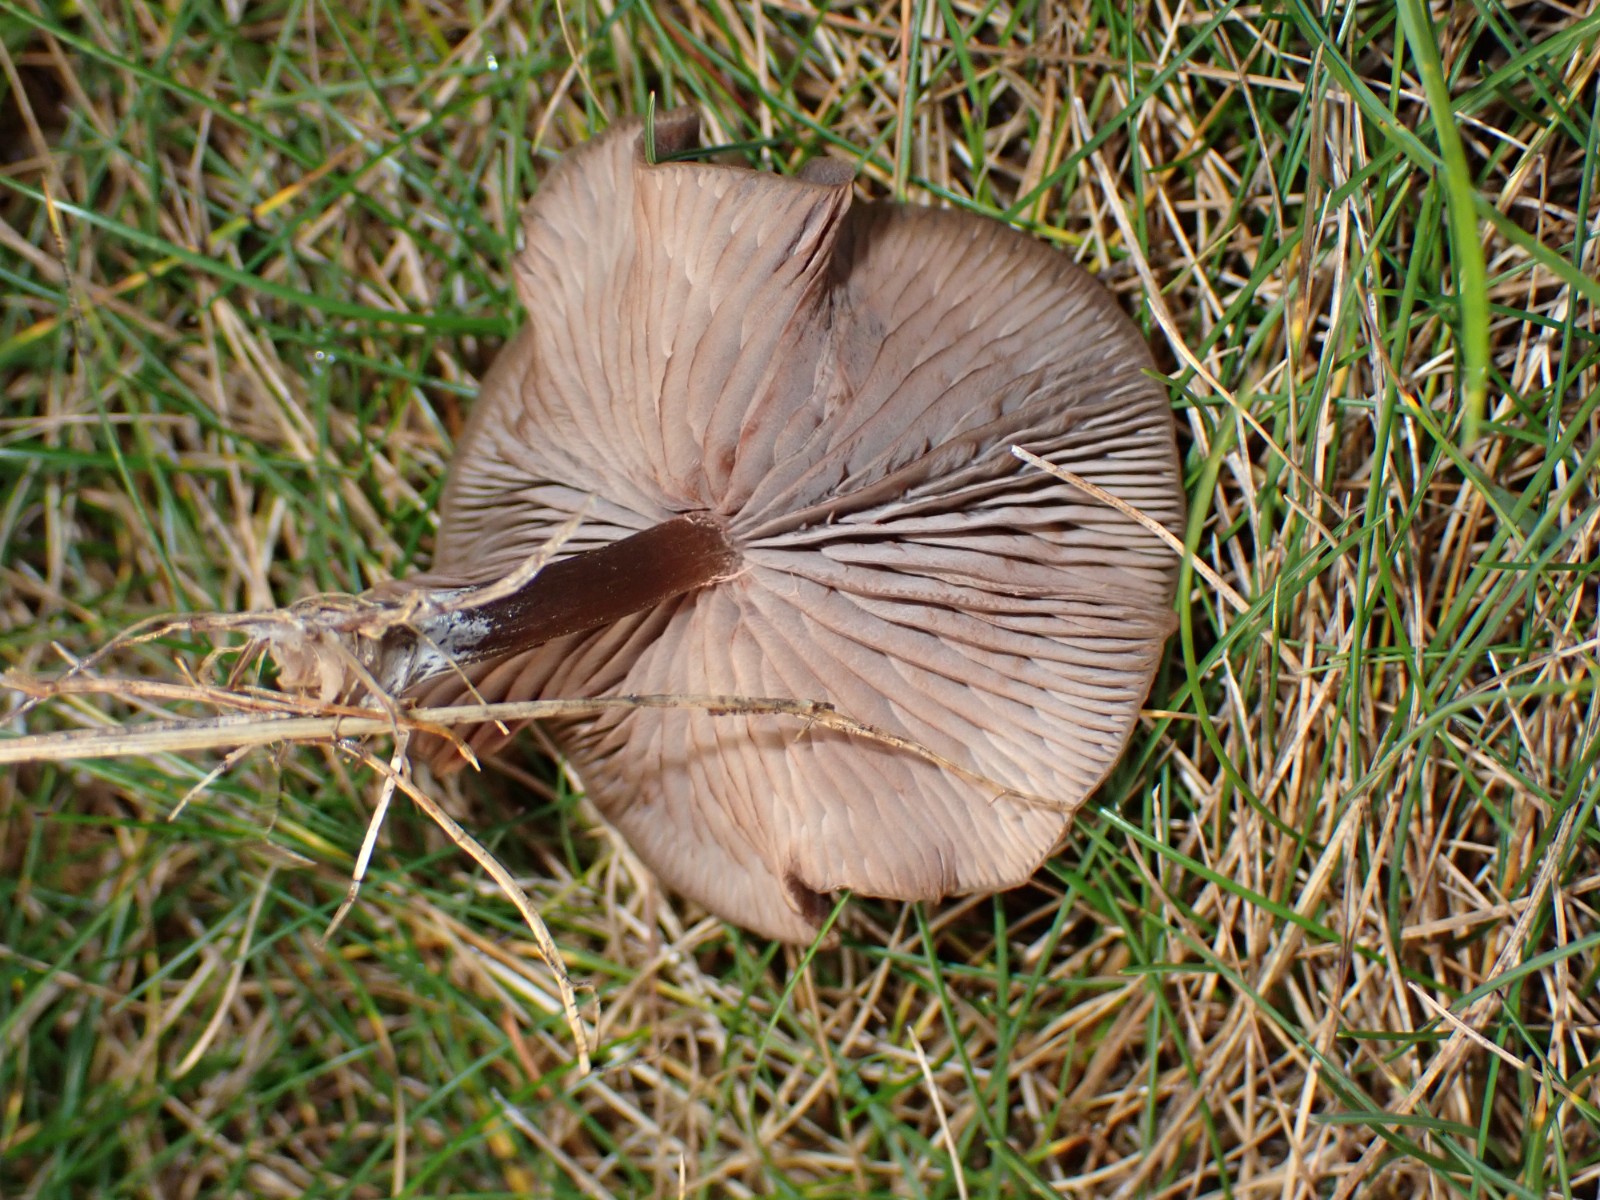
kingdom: Fungi
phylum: Basidiomycota
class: Agaricomycetes
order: Agaricales
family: Entolomataceae
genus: Entoloma
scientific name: Entoloma sericeum
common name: silkeglinsende rødblad
